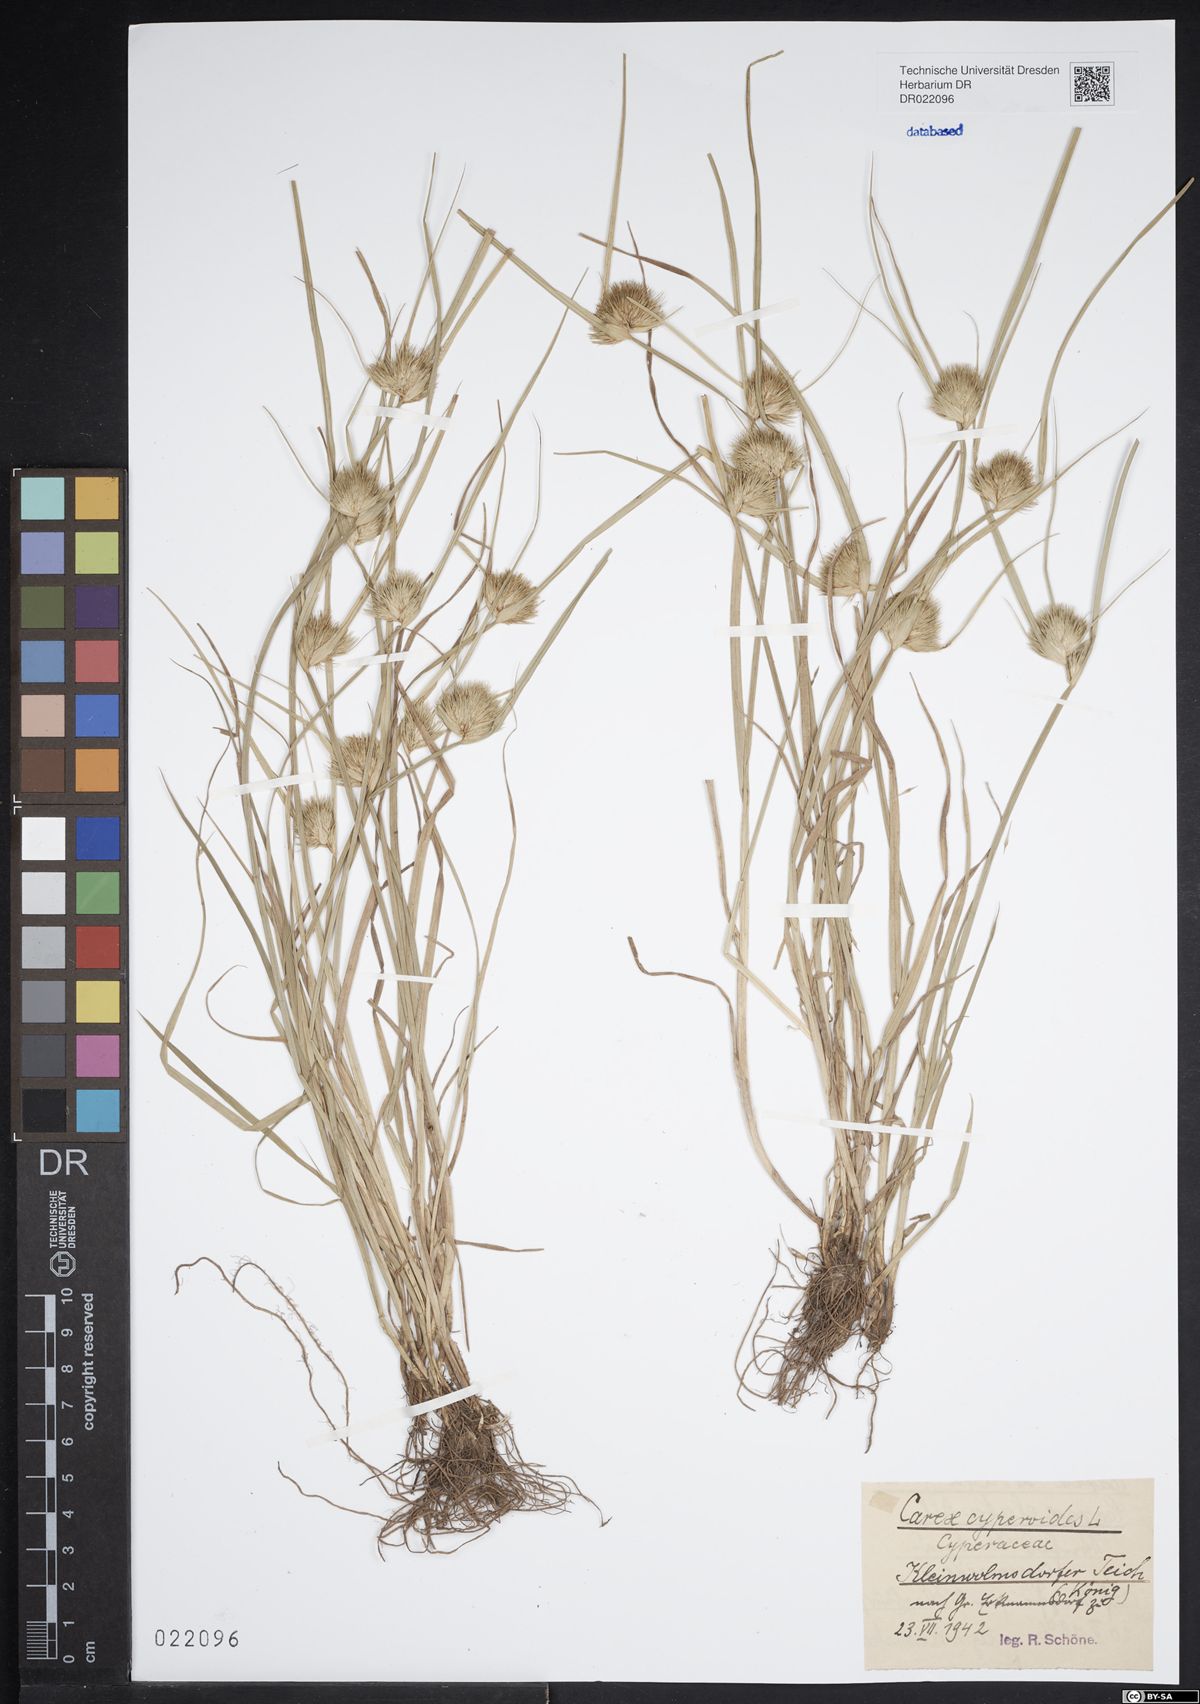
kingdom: Plantae
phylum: Tracheophyta
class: Liliopsida
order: Poales
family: Cyperaceae
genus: Carex
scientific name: Carex bohemica
